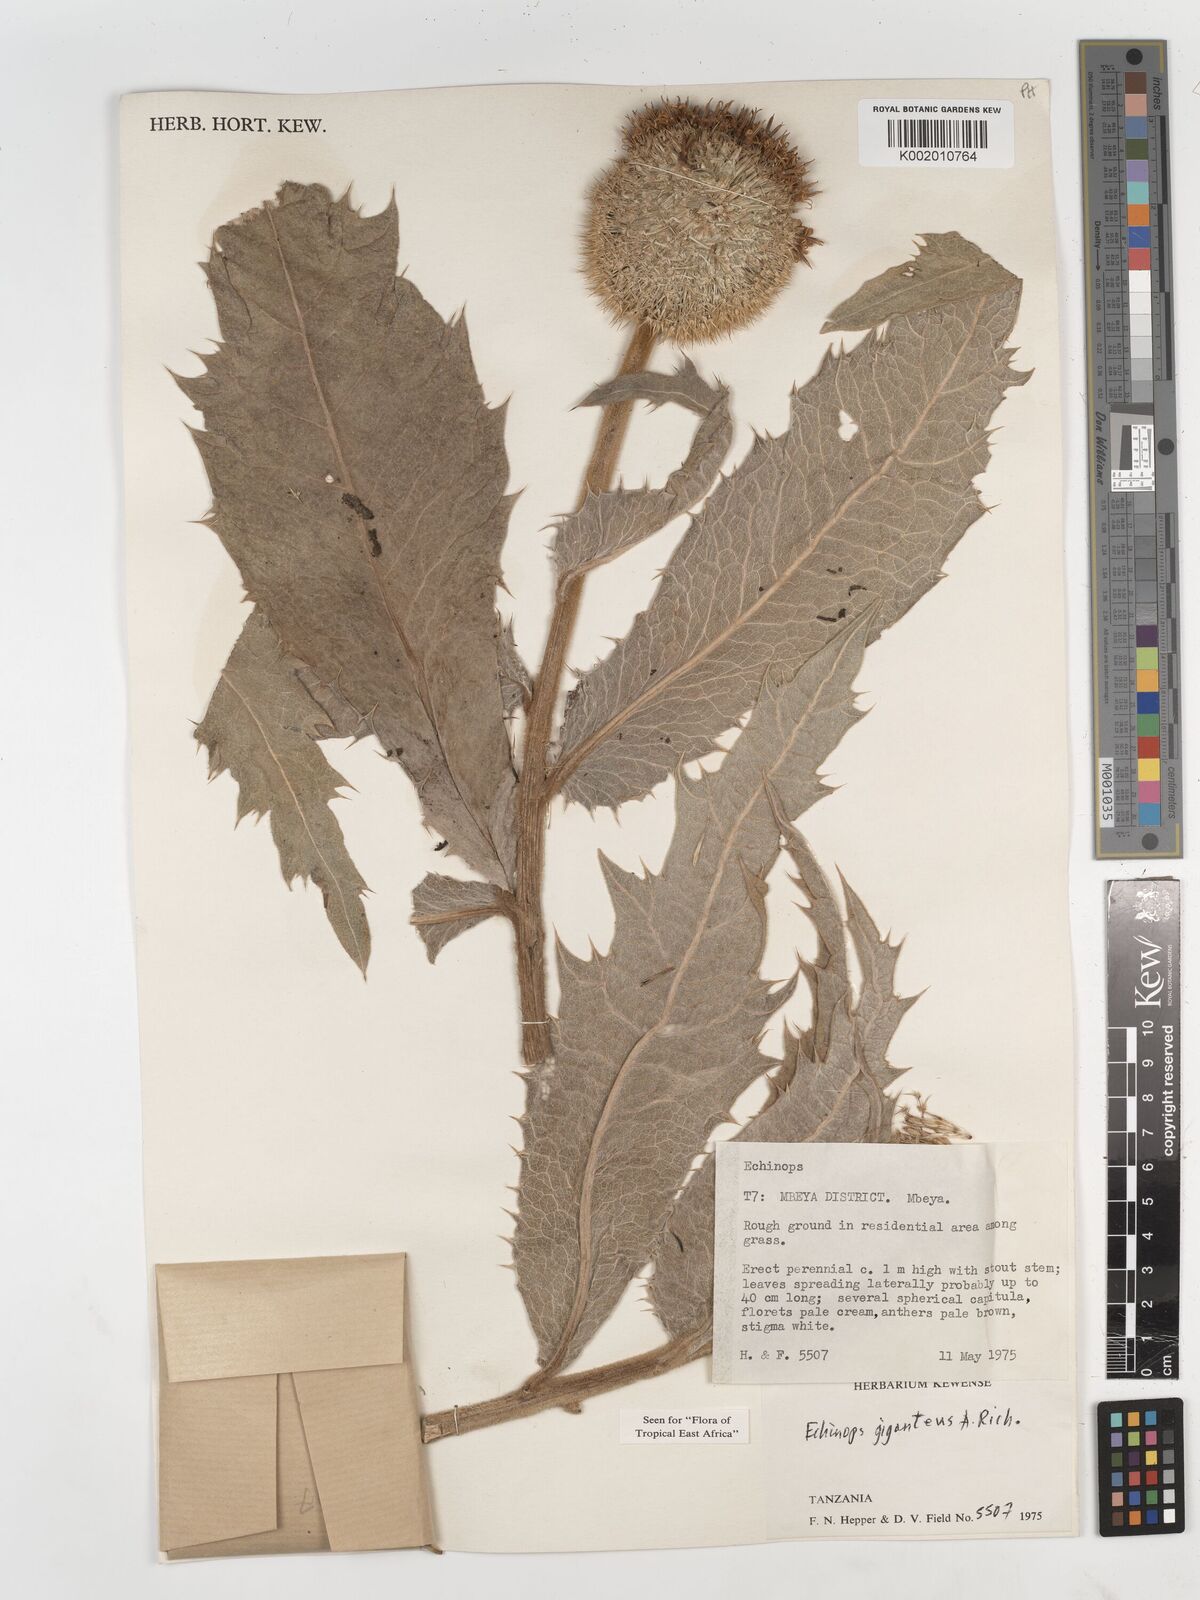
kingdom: Plantae
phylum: Tracheophyta
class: Magnoliopsida
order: Asterales
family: Asteraceae
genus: Echinops
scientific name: Echinops giganteus
